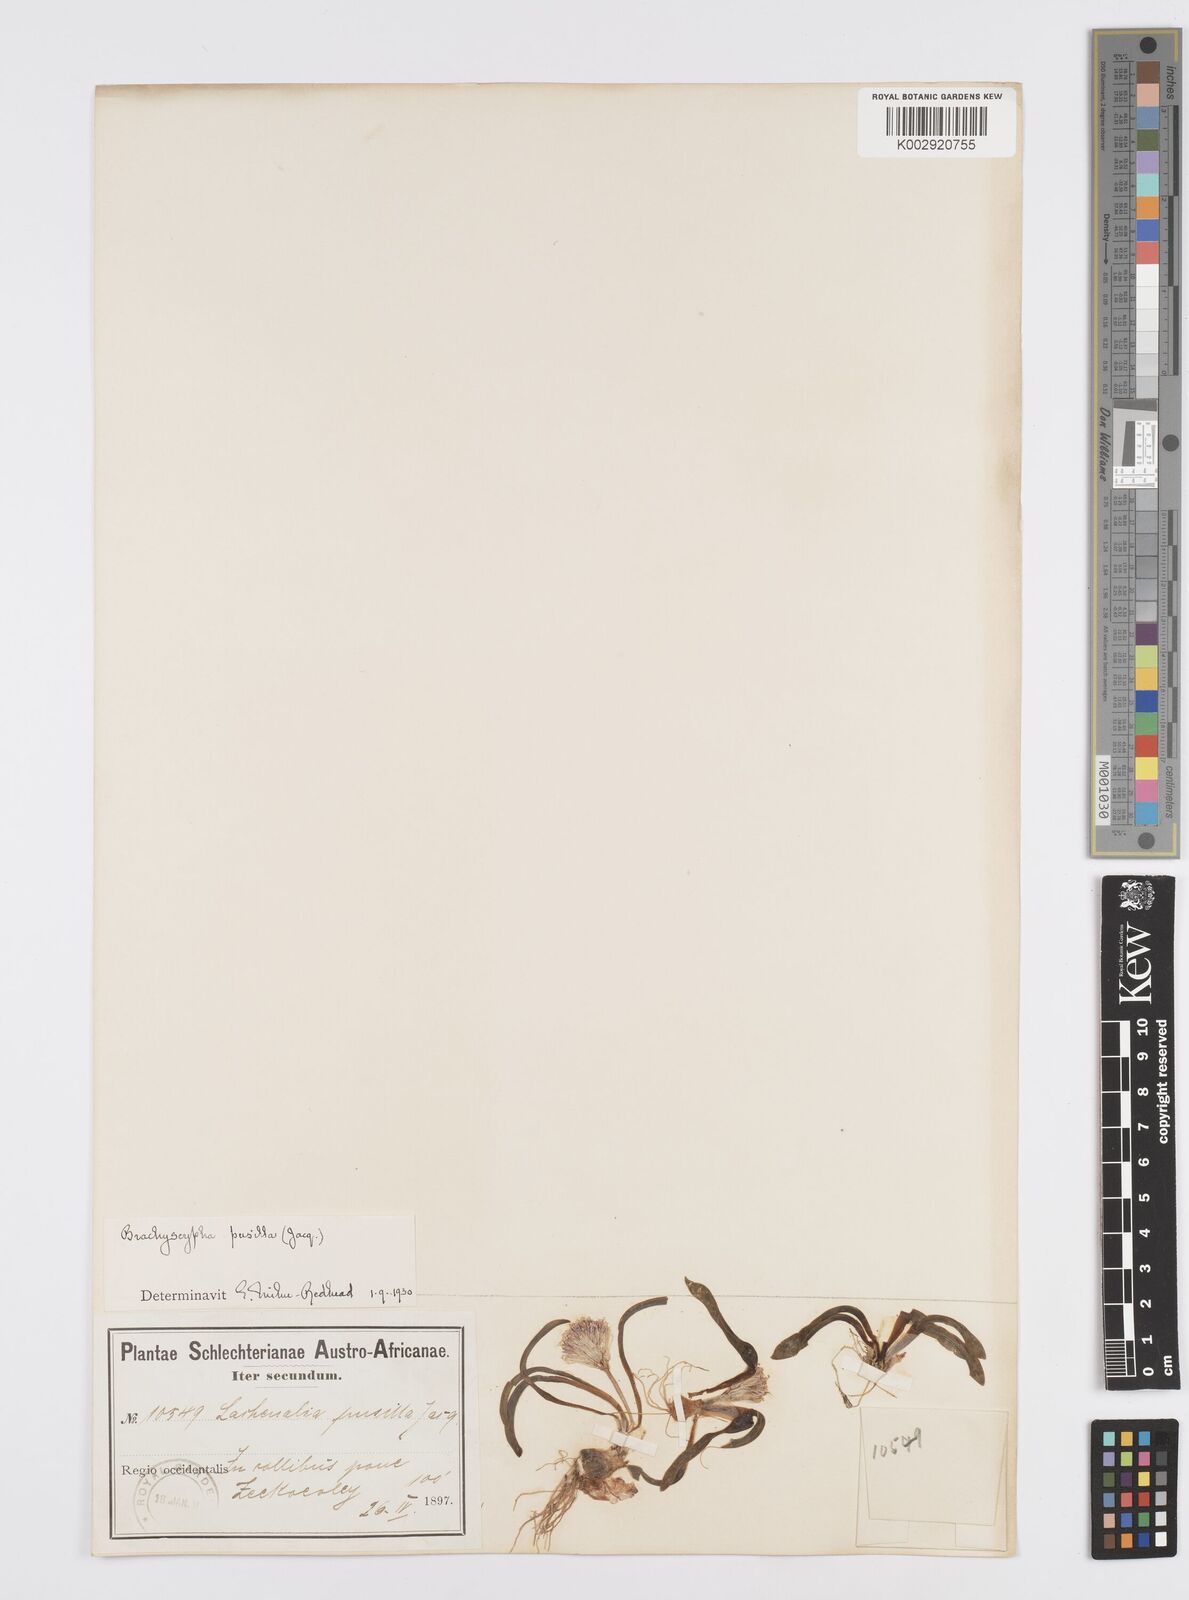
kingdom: Plantae
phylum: Tracheophyta
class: Liliopsida
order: Asparagales
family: Asparagaceae
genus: Lachenalia
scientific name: Lachenalia pusilla
